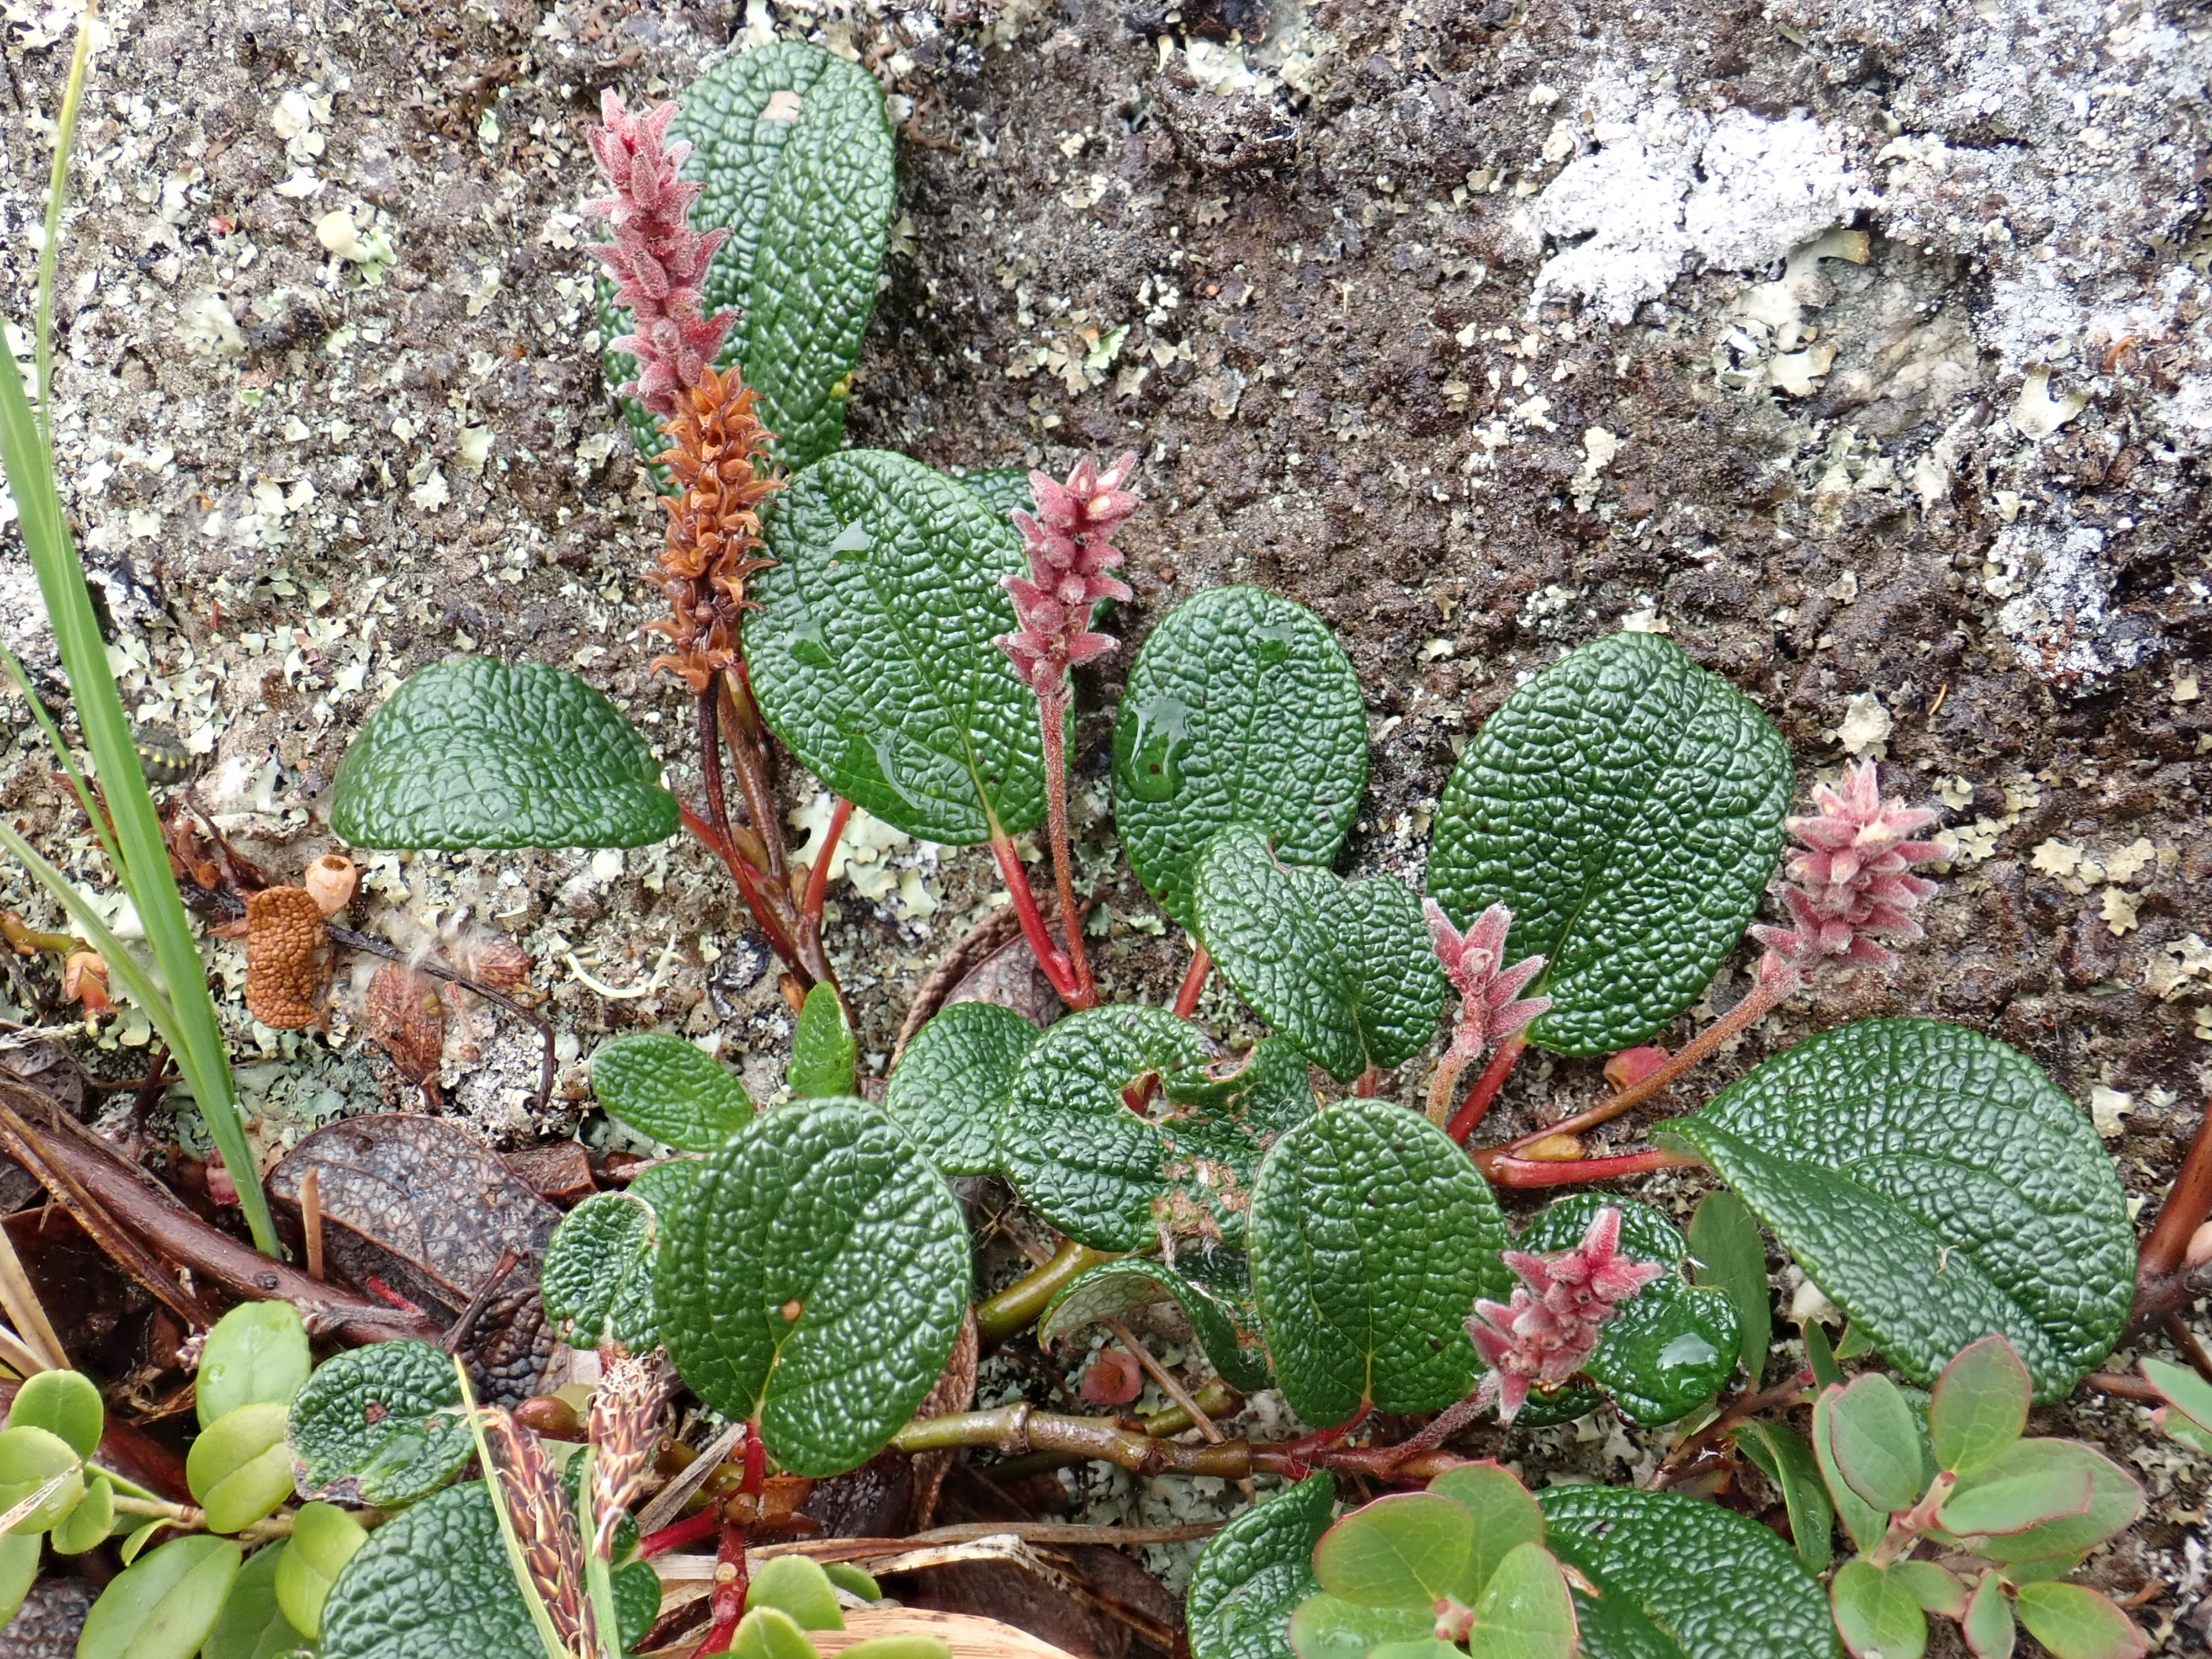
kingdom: Plantae
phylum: Tracheophyta
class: Magnoliopsida
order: Malpighiales
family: Salicaceae
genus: Salix
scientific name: Salix reticulata
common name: Net-leaved willow
